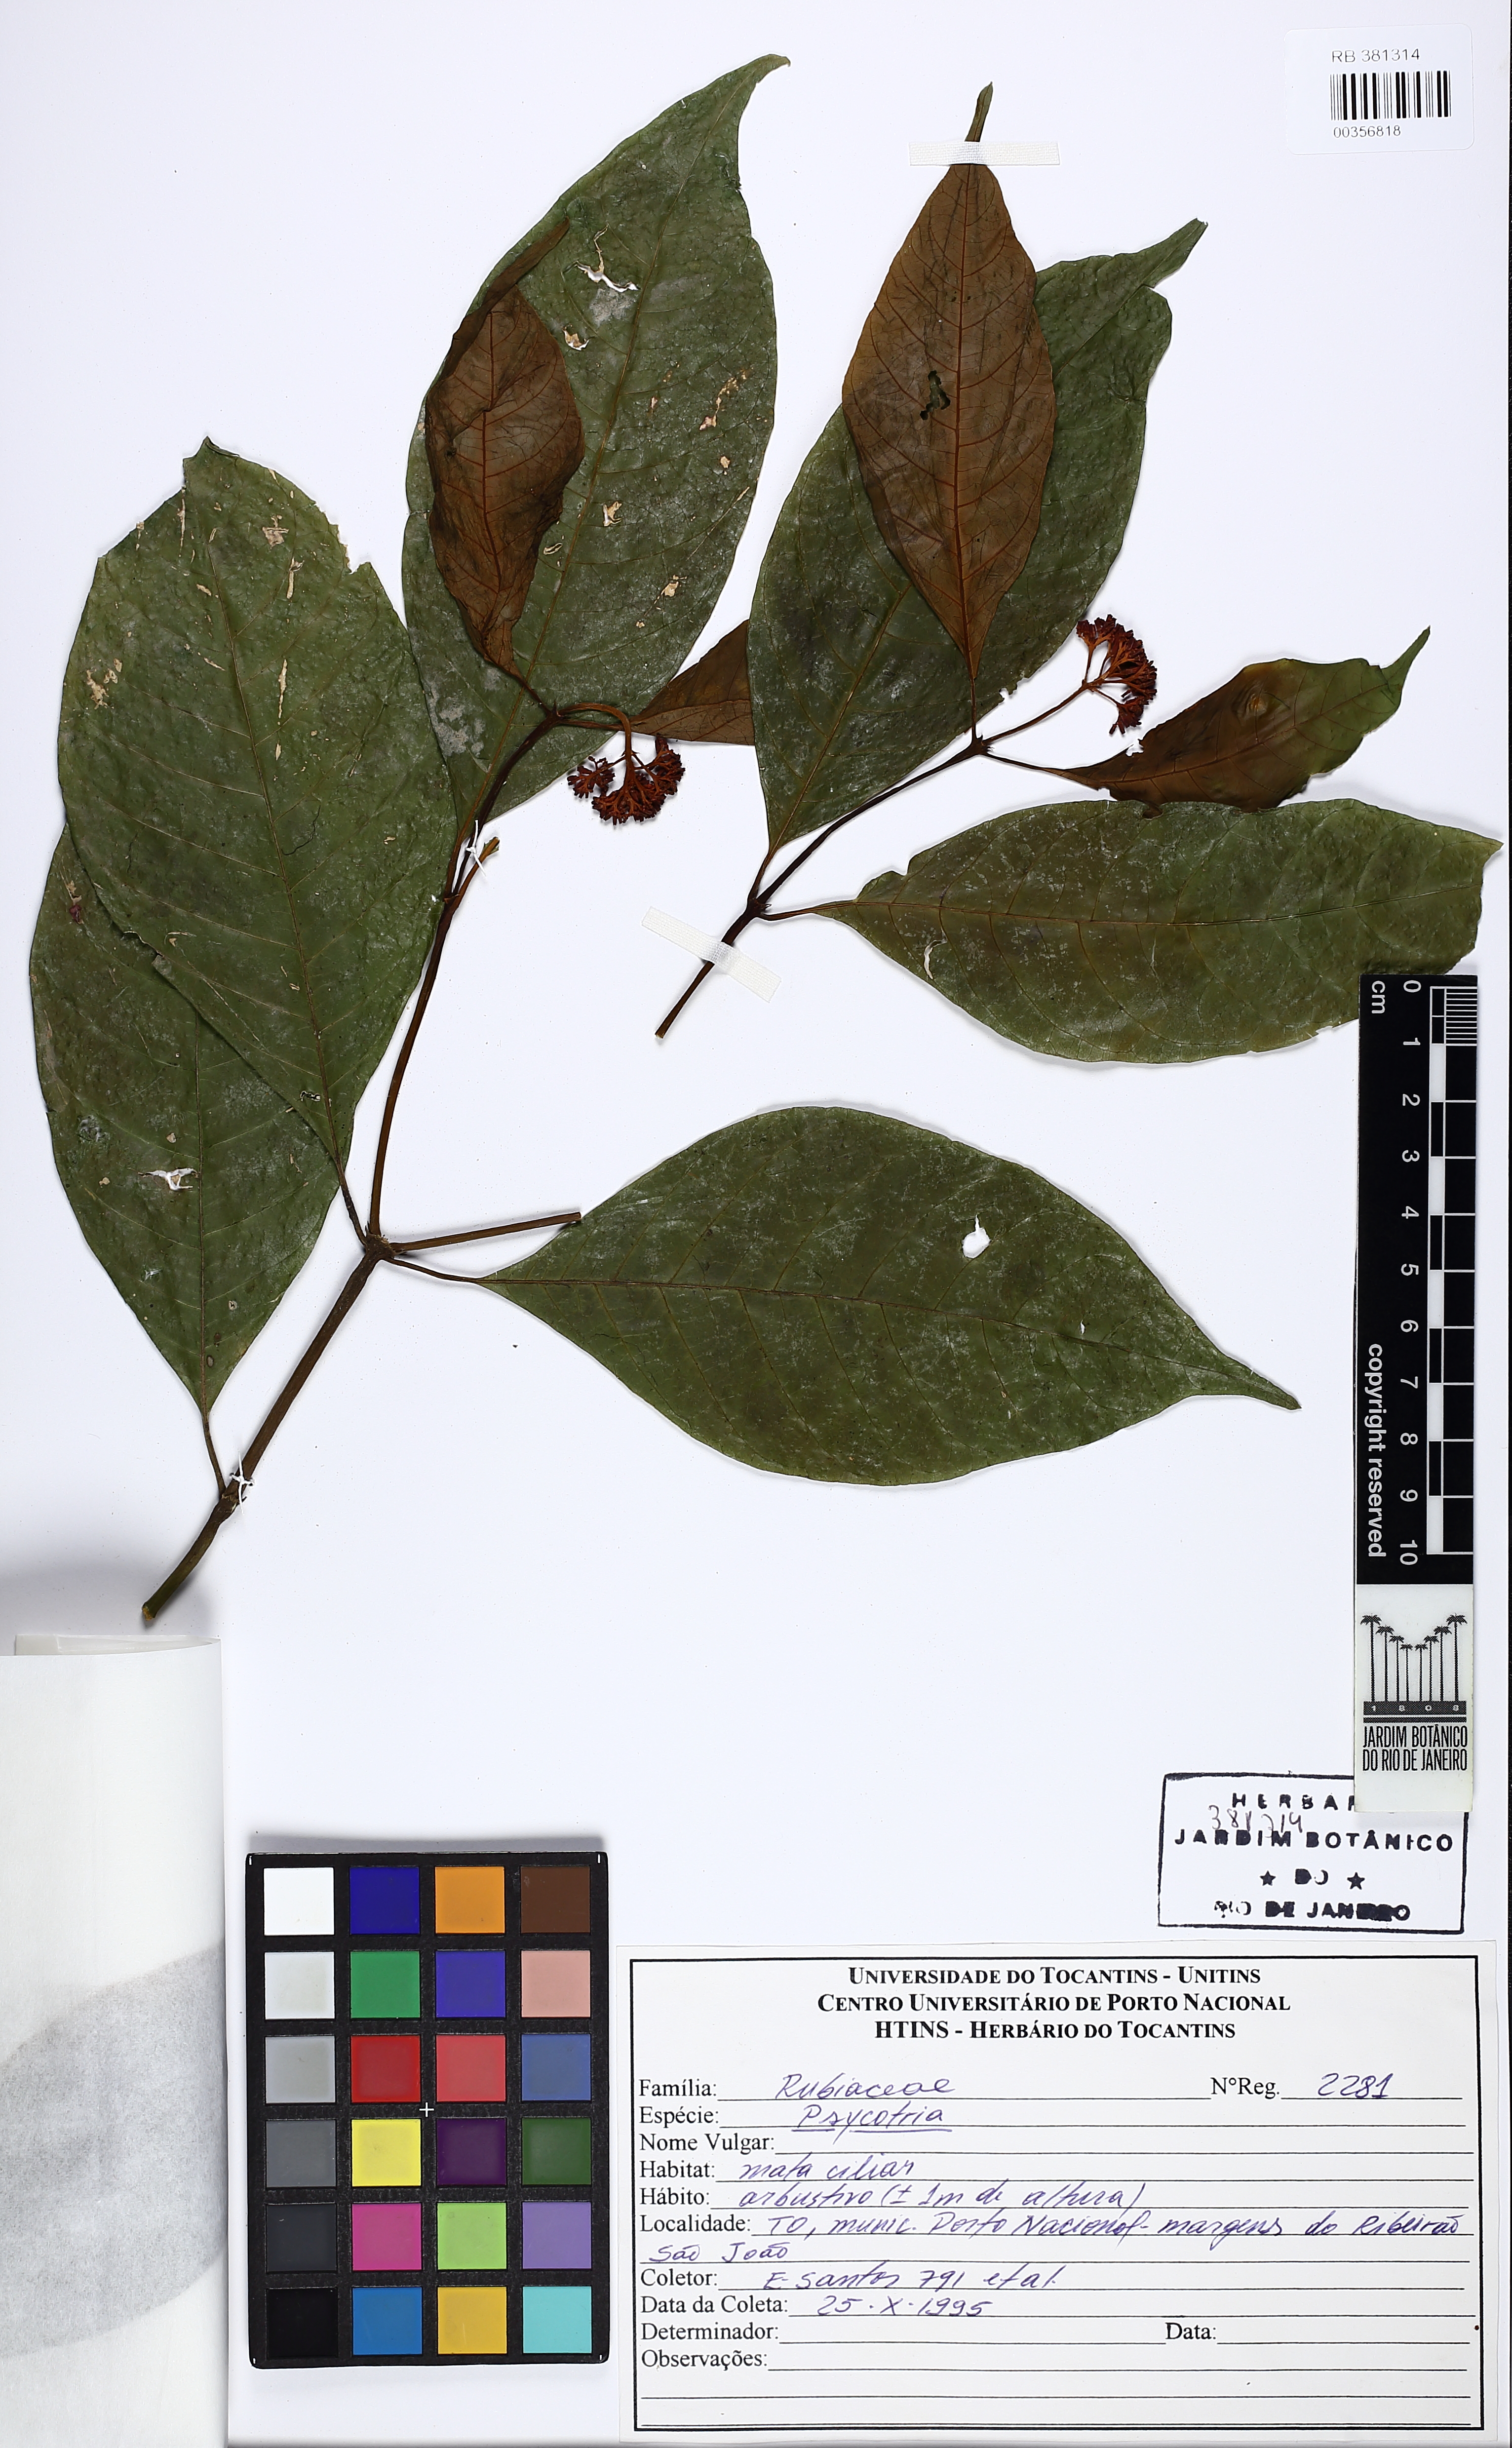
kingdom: Plantae
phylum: Tracheophyta
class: Magnoliopsida
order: Gentianales
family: Rubiaceae
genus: Psychotria
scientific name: Psychotria
